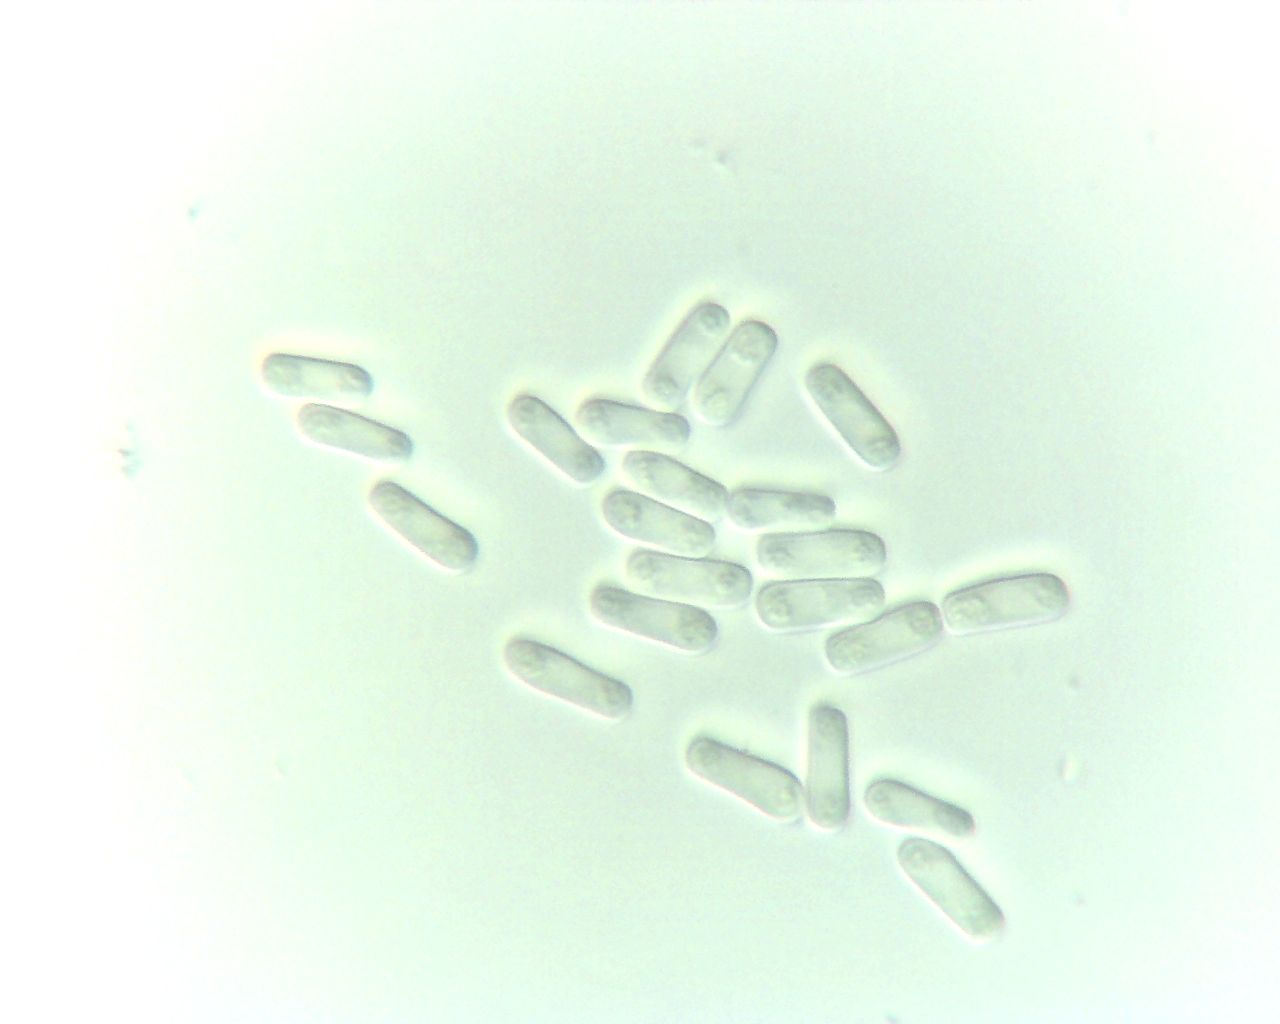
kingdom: Fungi
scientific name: Fungi
